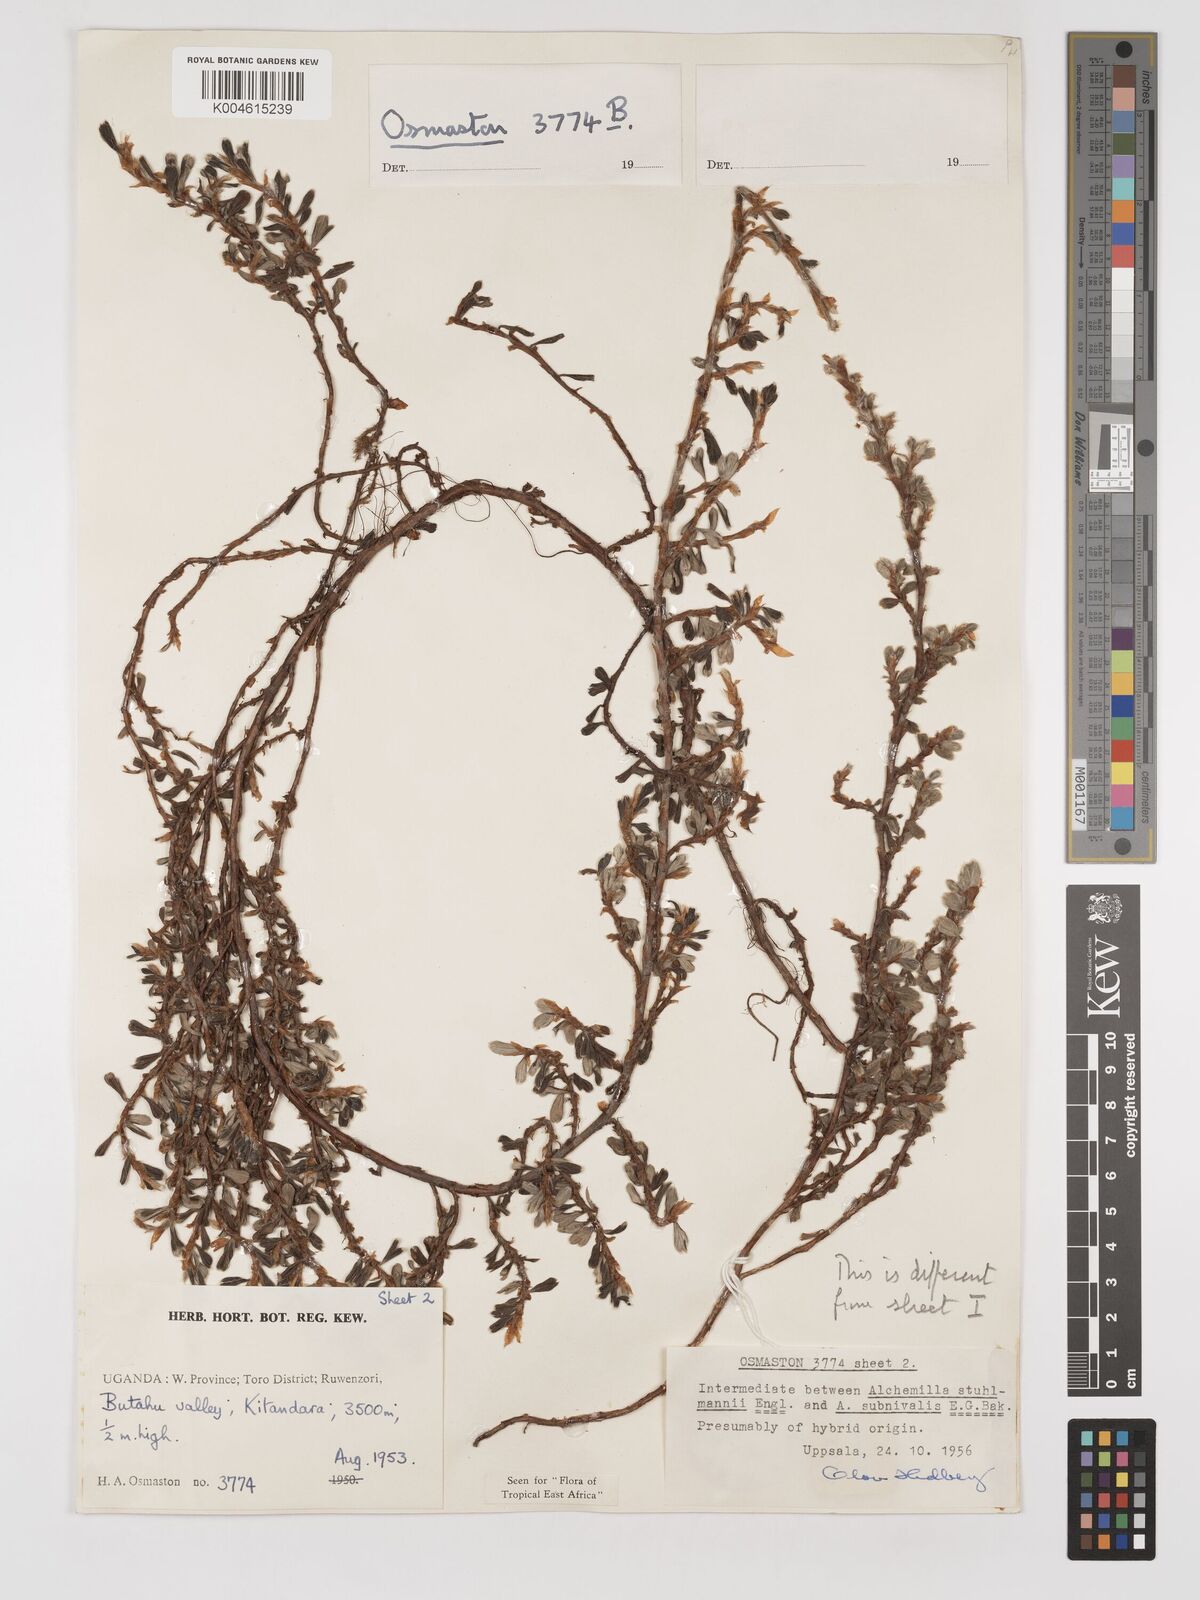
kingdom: Plantae
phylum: Tracheophyta
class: Magnoliopsida
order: Rosales
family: Rosaceae
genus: Alchemilla
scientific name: Alchemilla stuhlmannii
